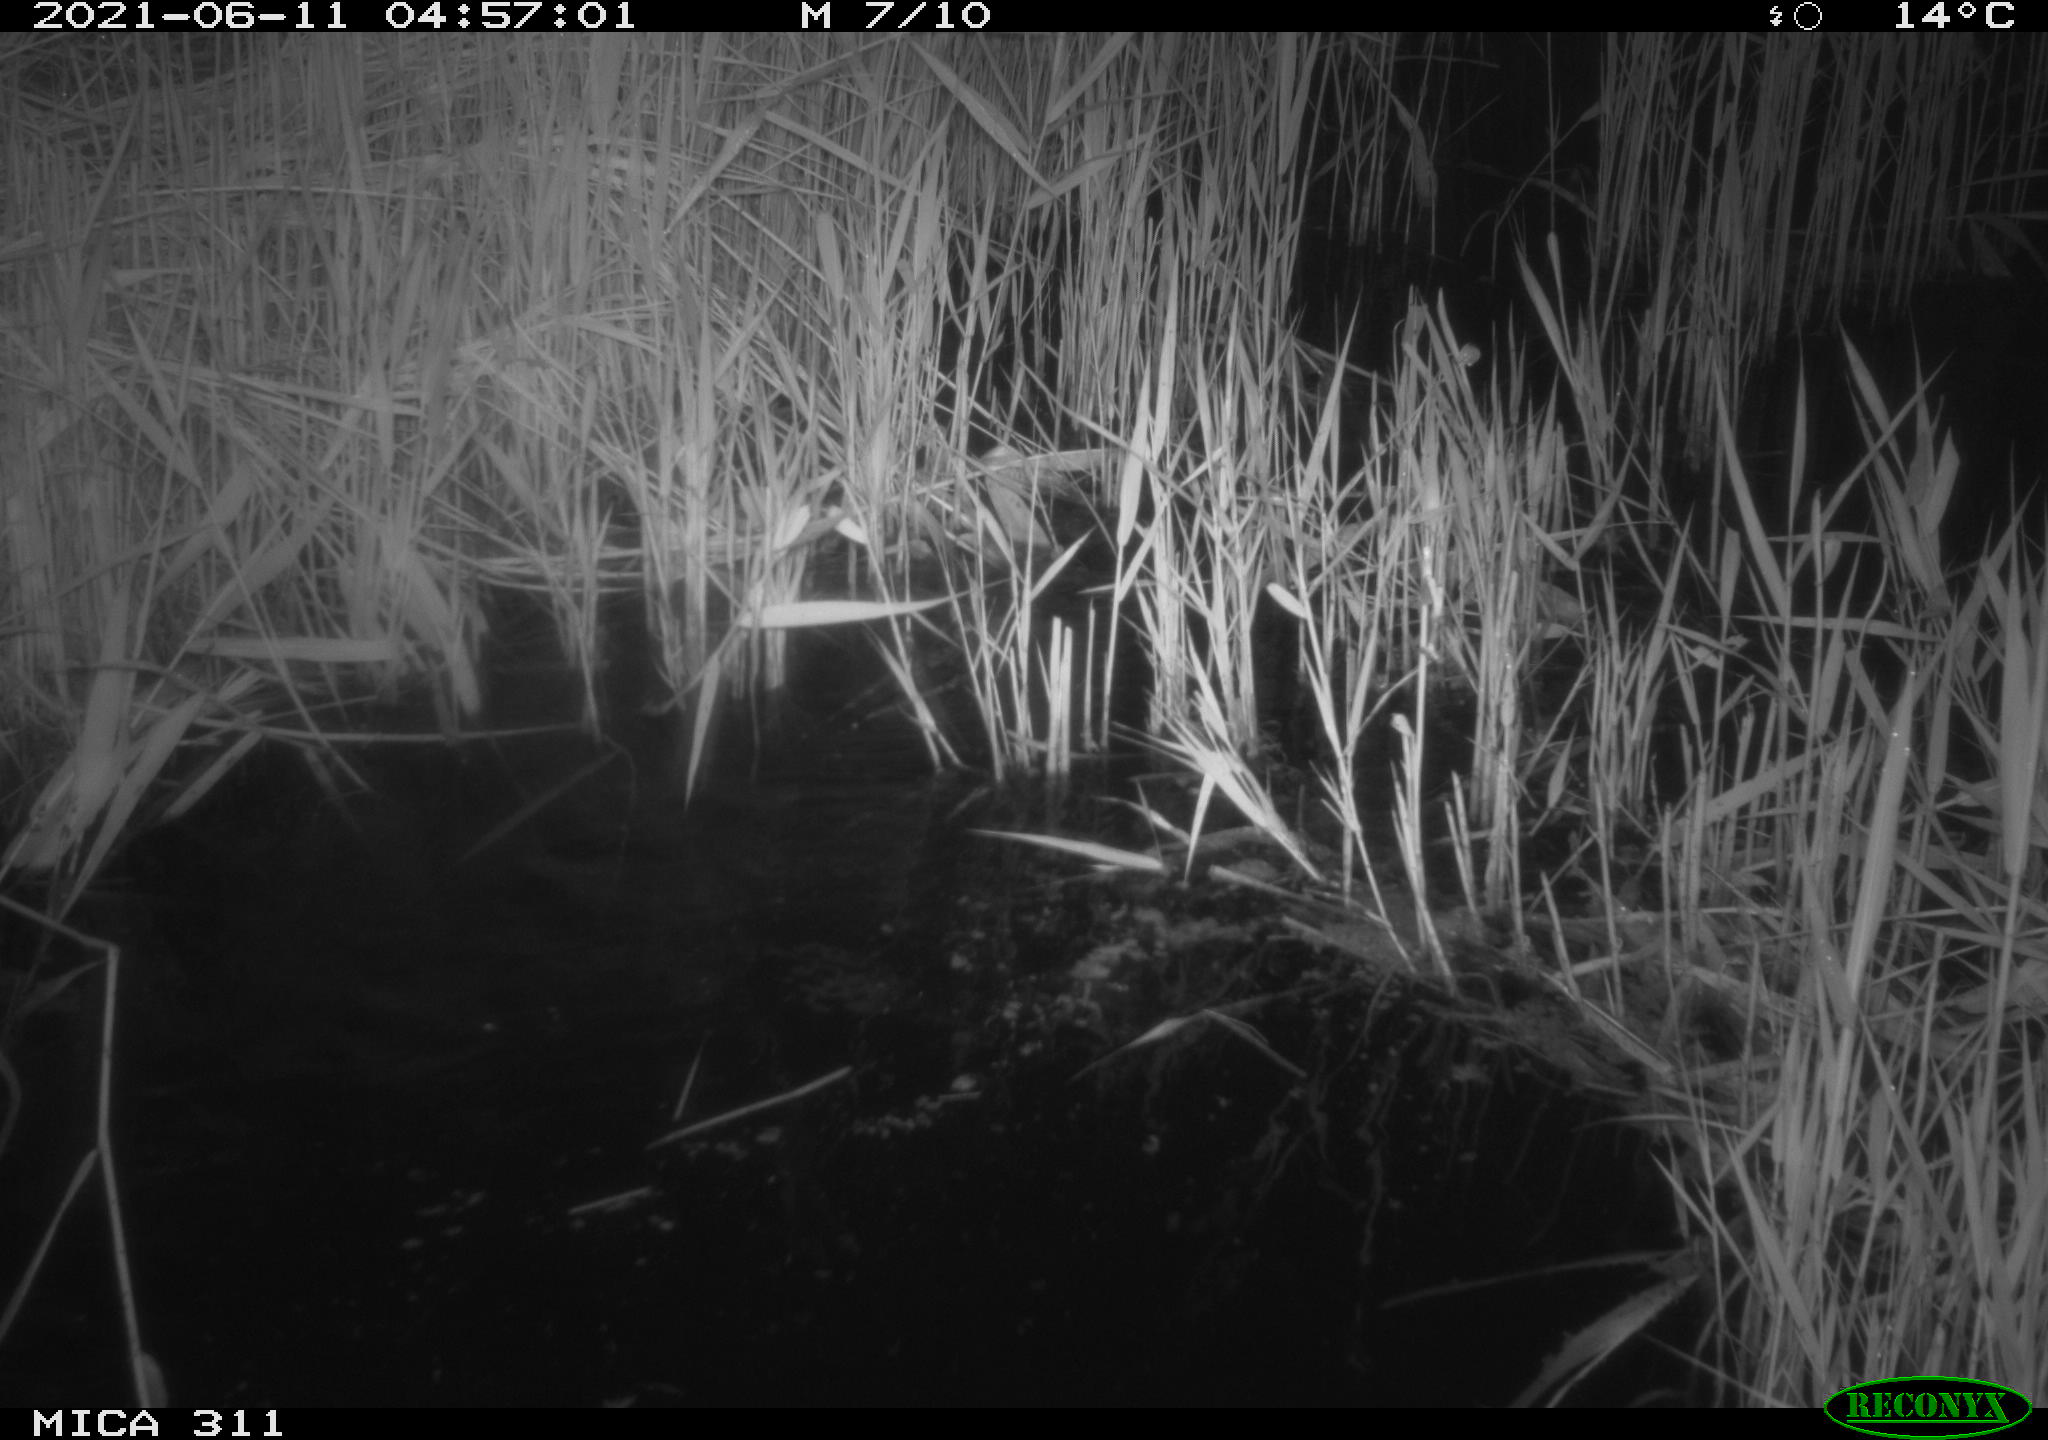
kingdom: Animalia
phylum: Chordata
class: Aves
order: Gruiformes
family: Rallidae
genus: Gallinula
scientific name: Gallinula chloropus
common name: Common moorhen
